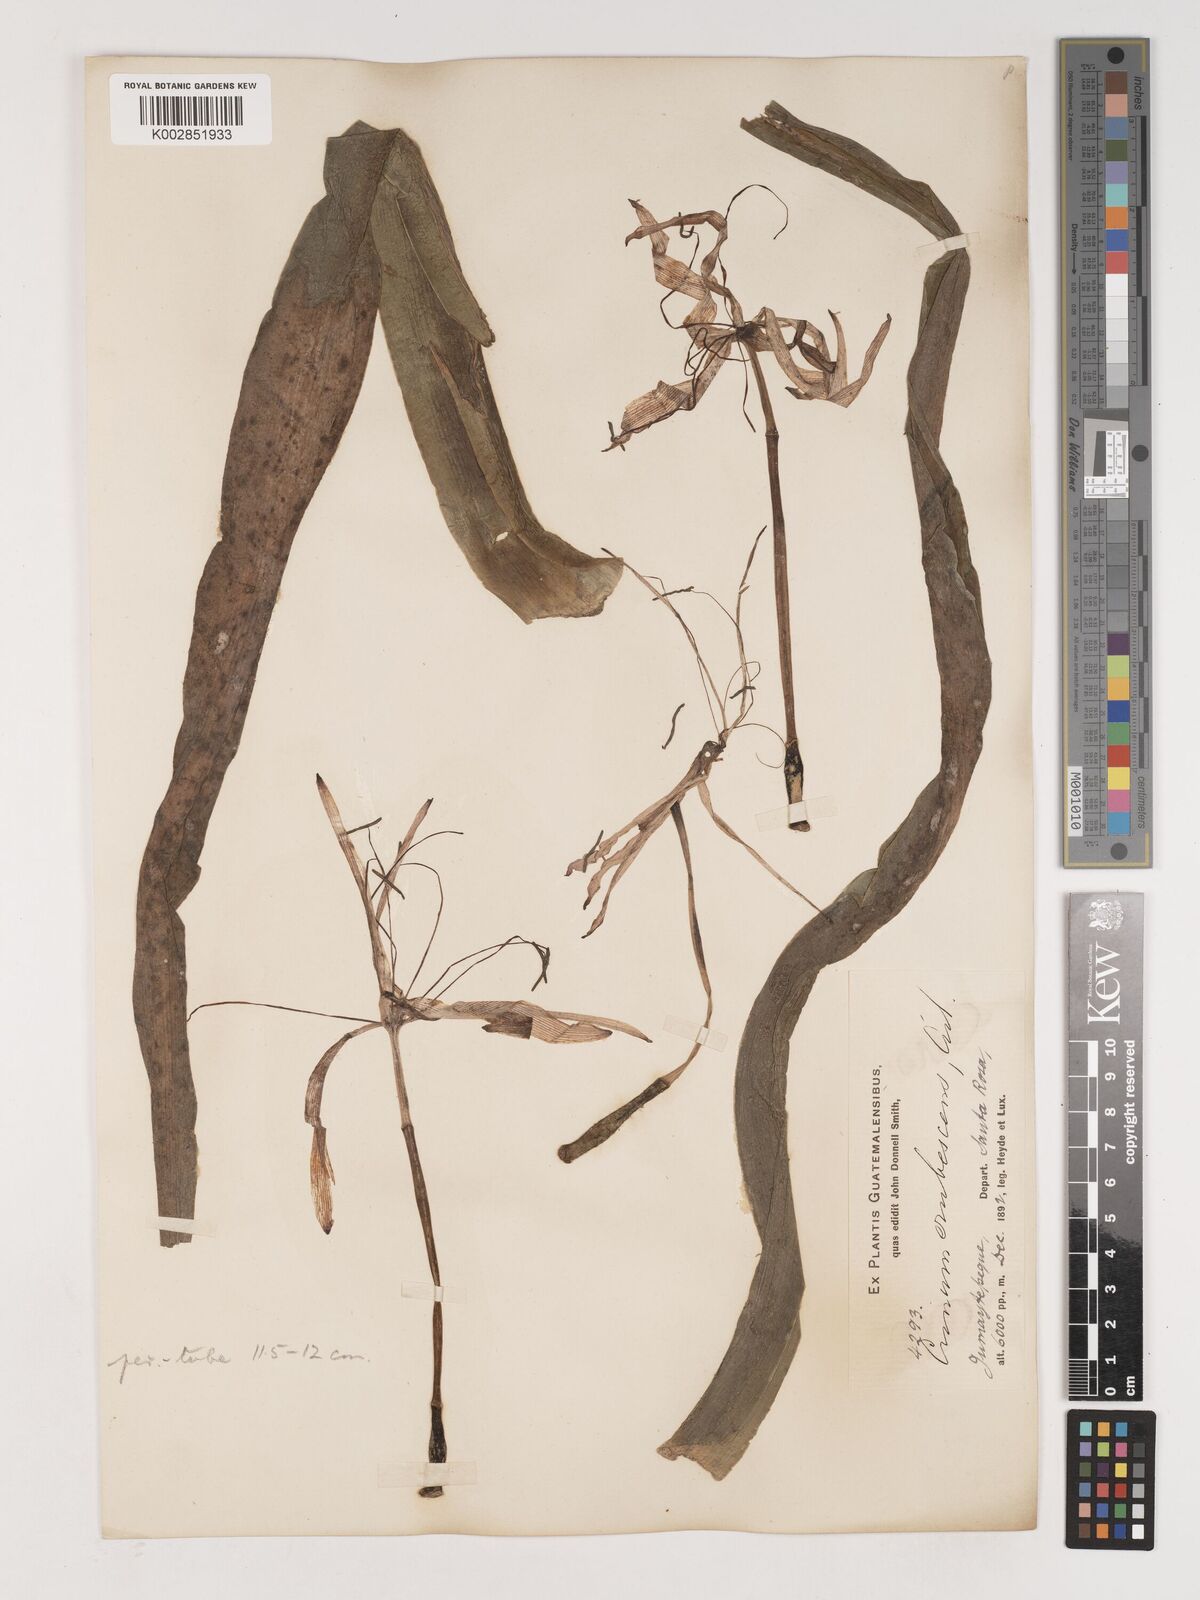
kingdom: Plantae
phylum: Tracheophyta
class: Liliopsida
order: Asparagales
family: Amaryllidaceae
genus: Crinum
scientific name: Crinum americanum
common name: Florida swamp-lily
